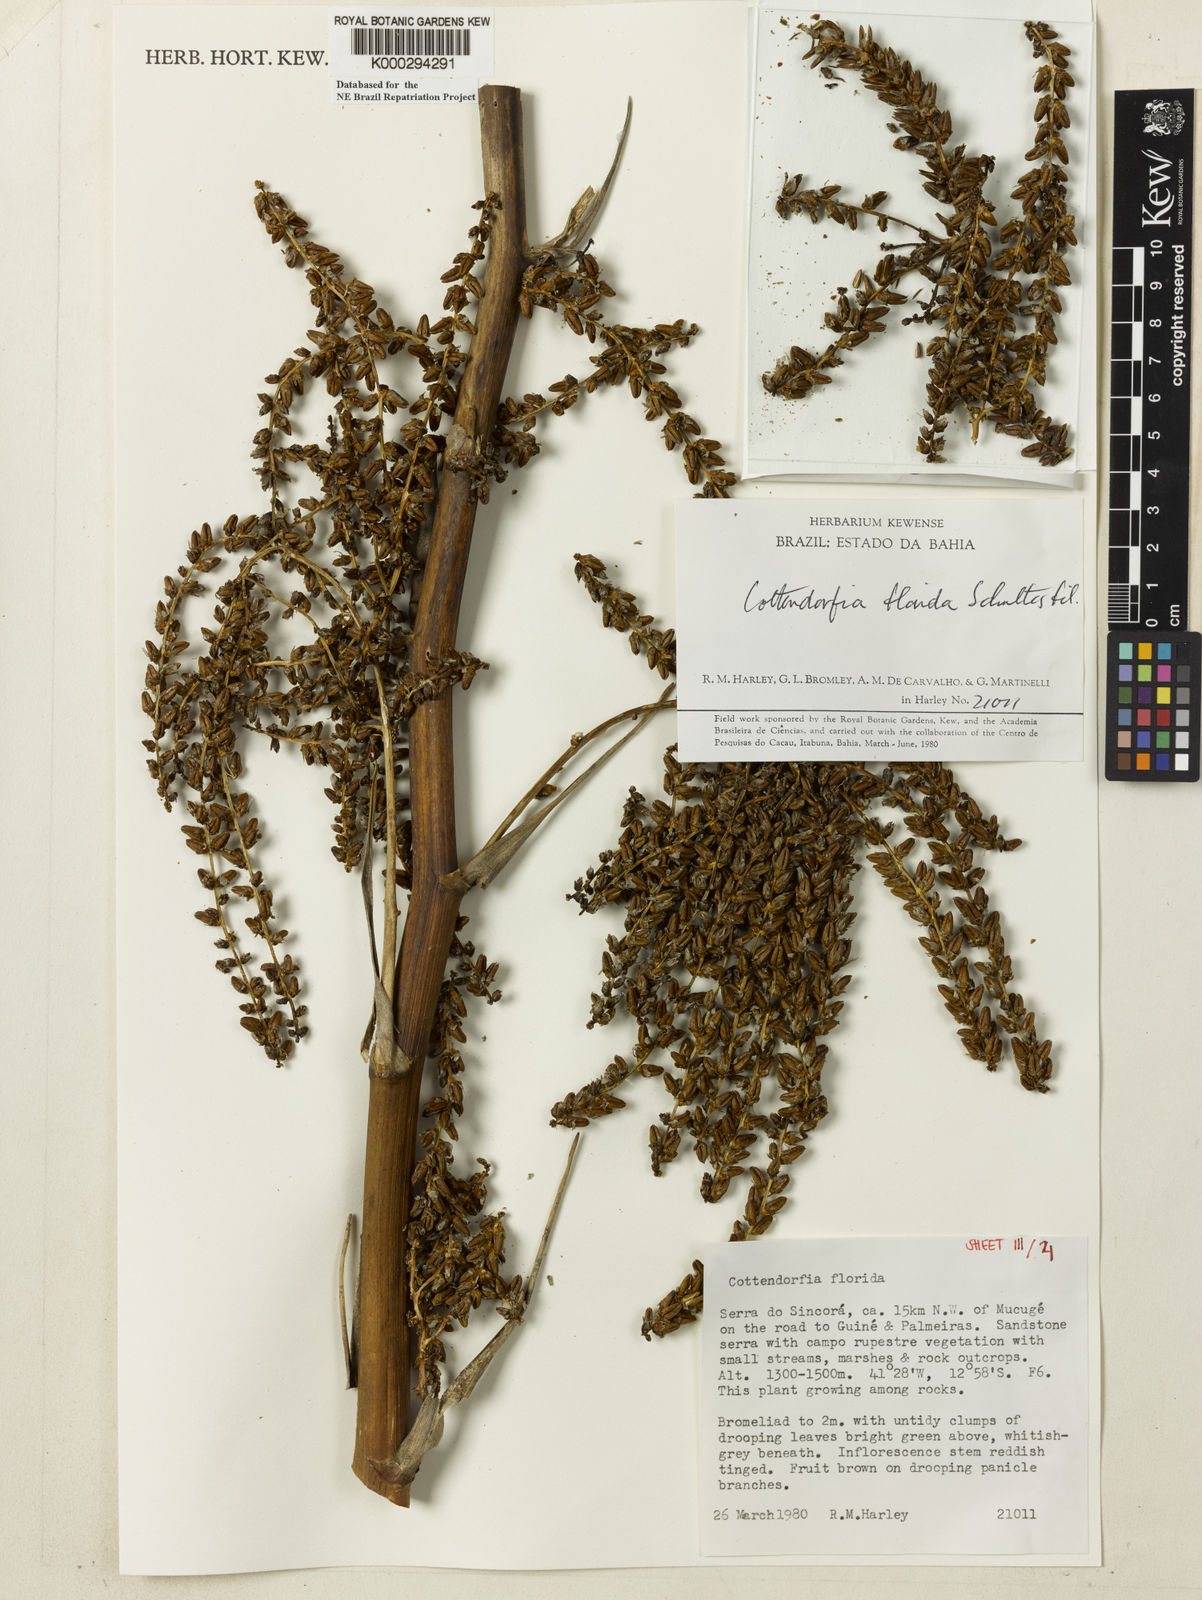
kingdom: Plantae
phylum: Tracheophyta
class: Liliopsida
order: Poales
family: Bromeliaceae
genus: Cottendorfia
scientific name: Cottendorfia florida
